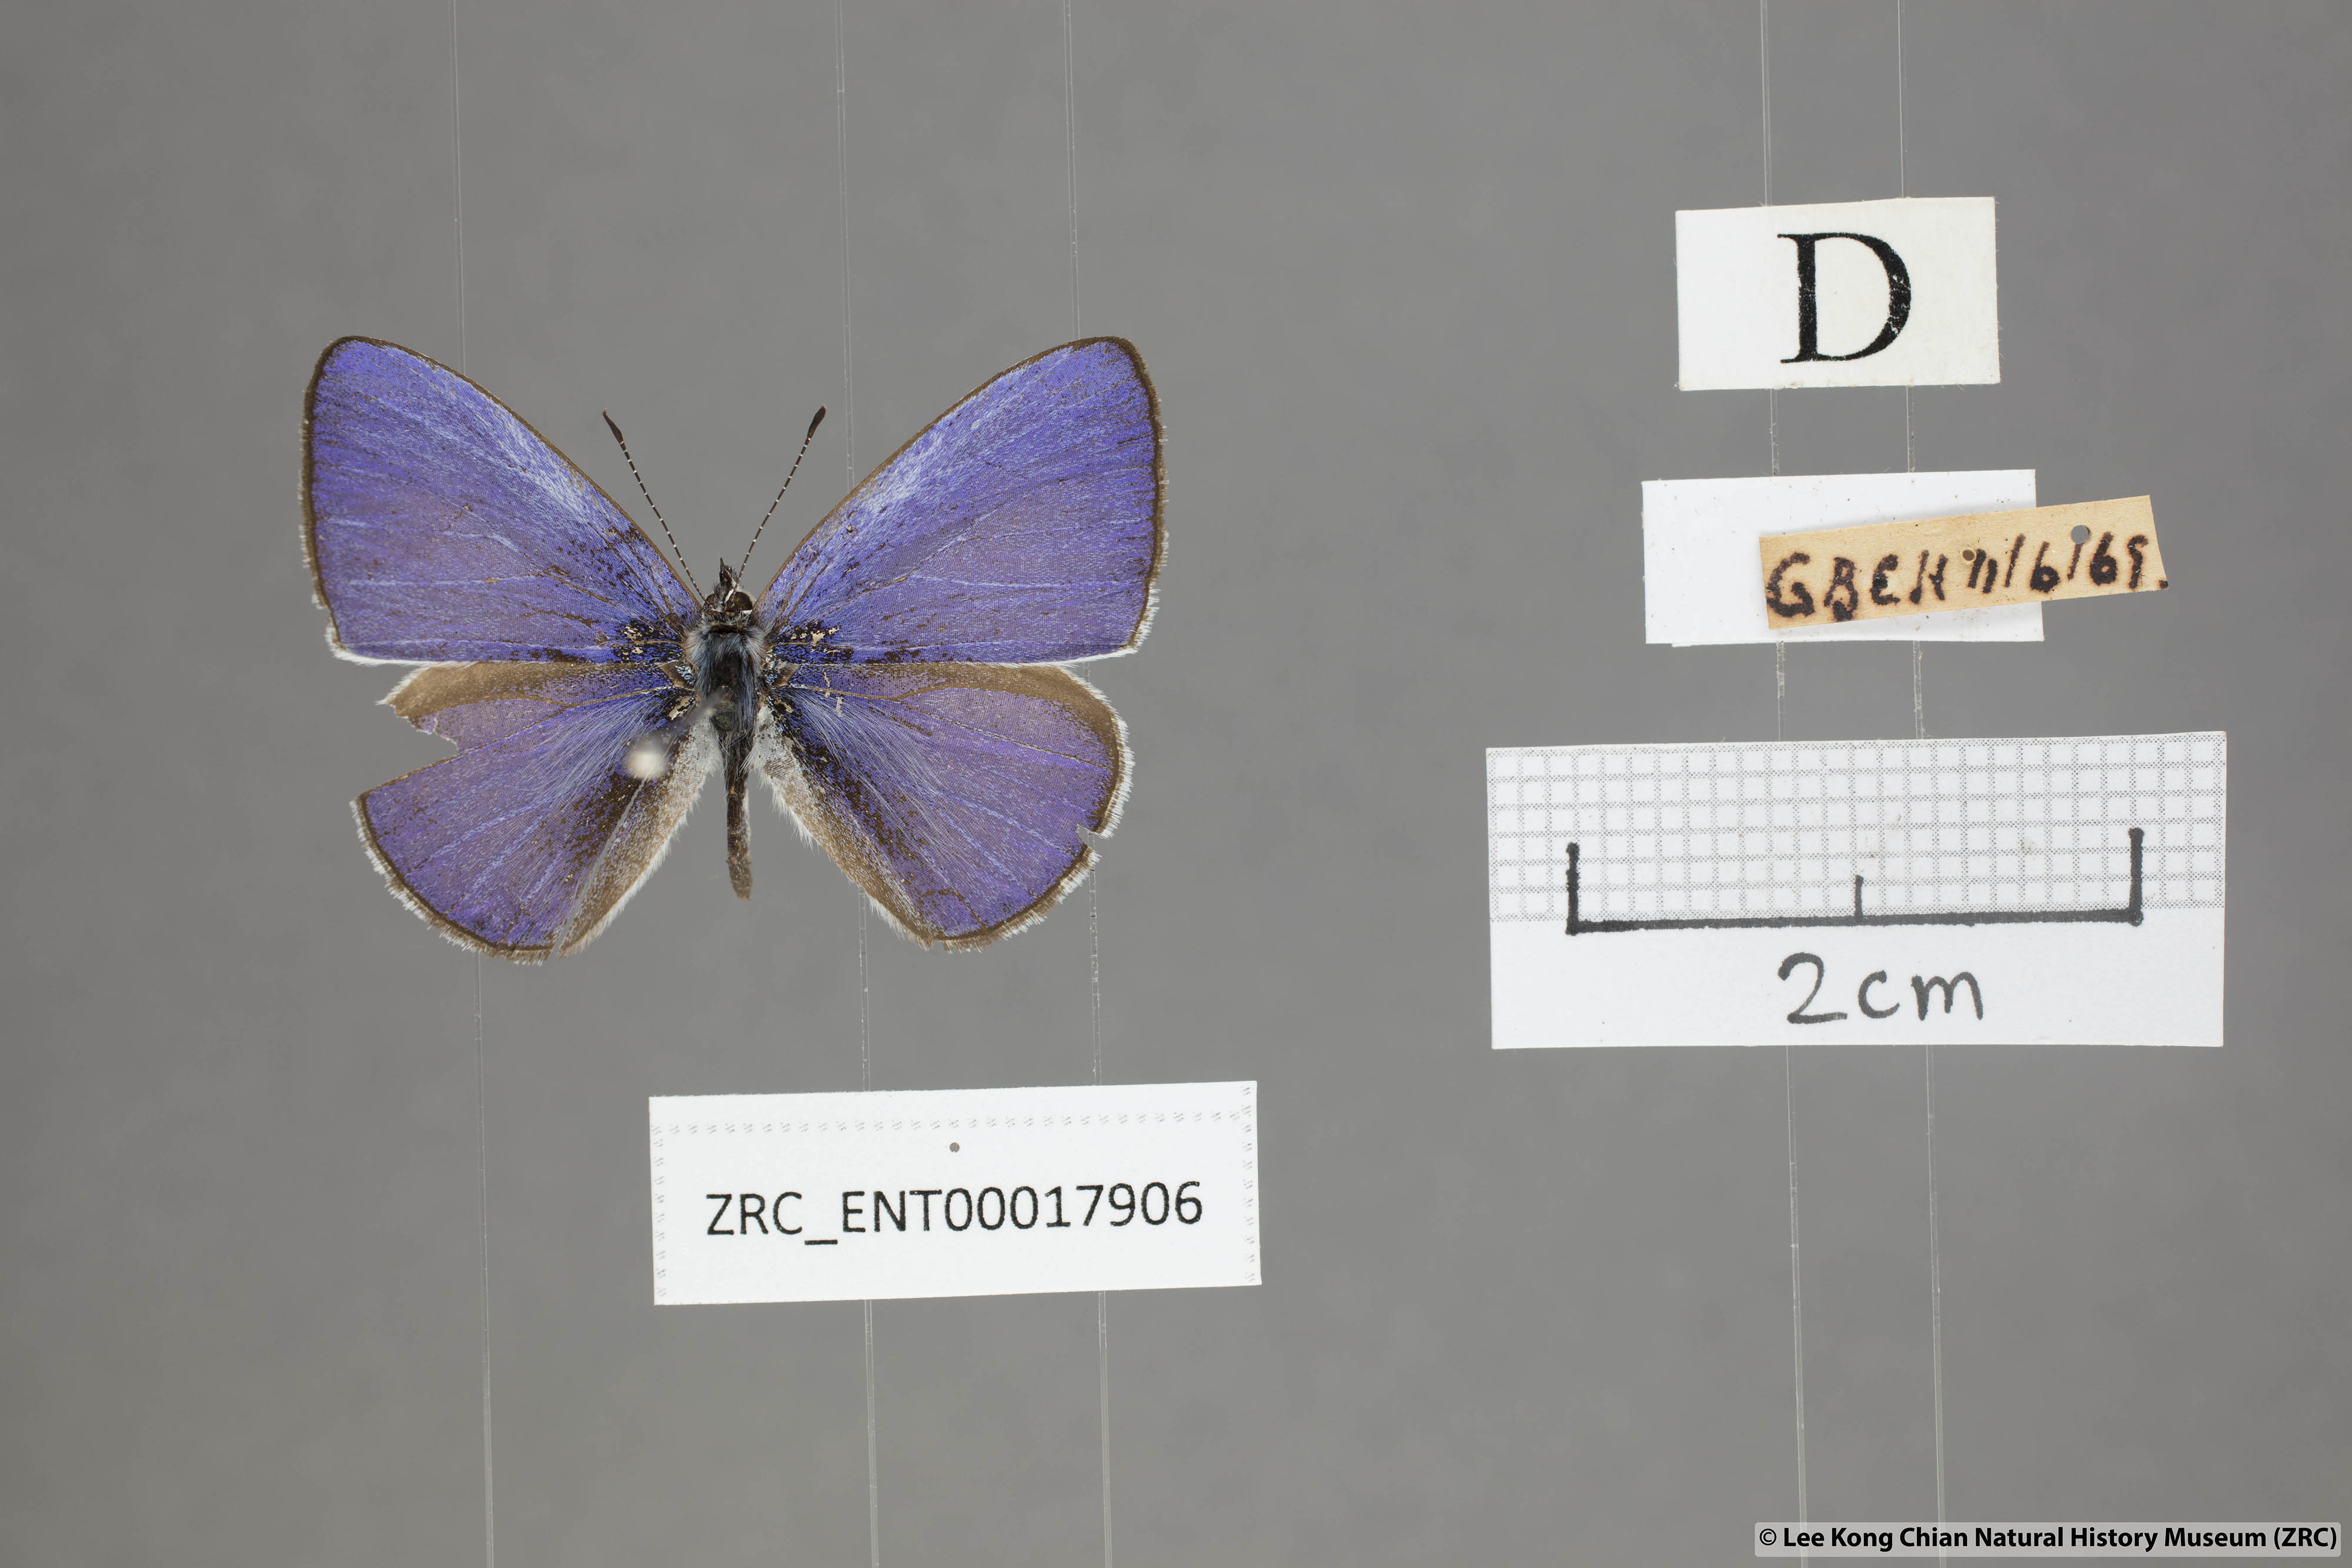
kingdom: Animalia
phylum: Arthropoda
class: Insecta
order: Lepidoptera
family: Lycaenidae
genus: Udara
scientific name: Udara
